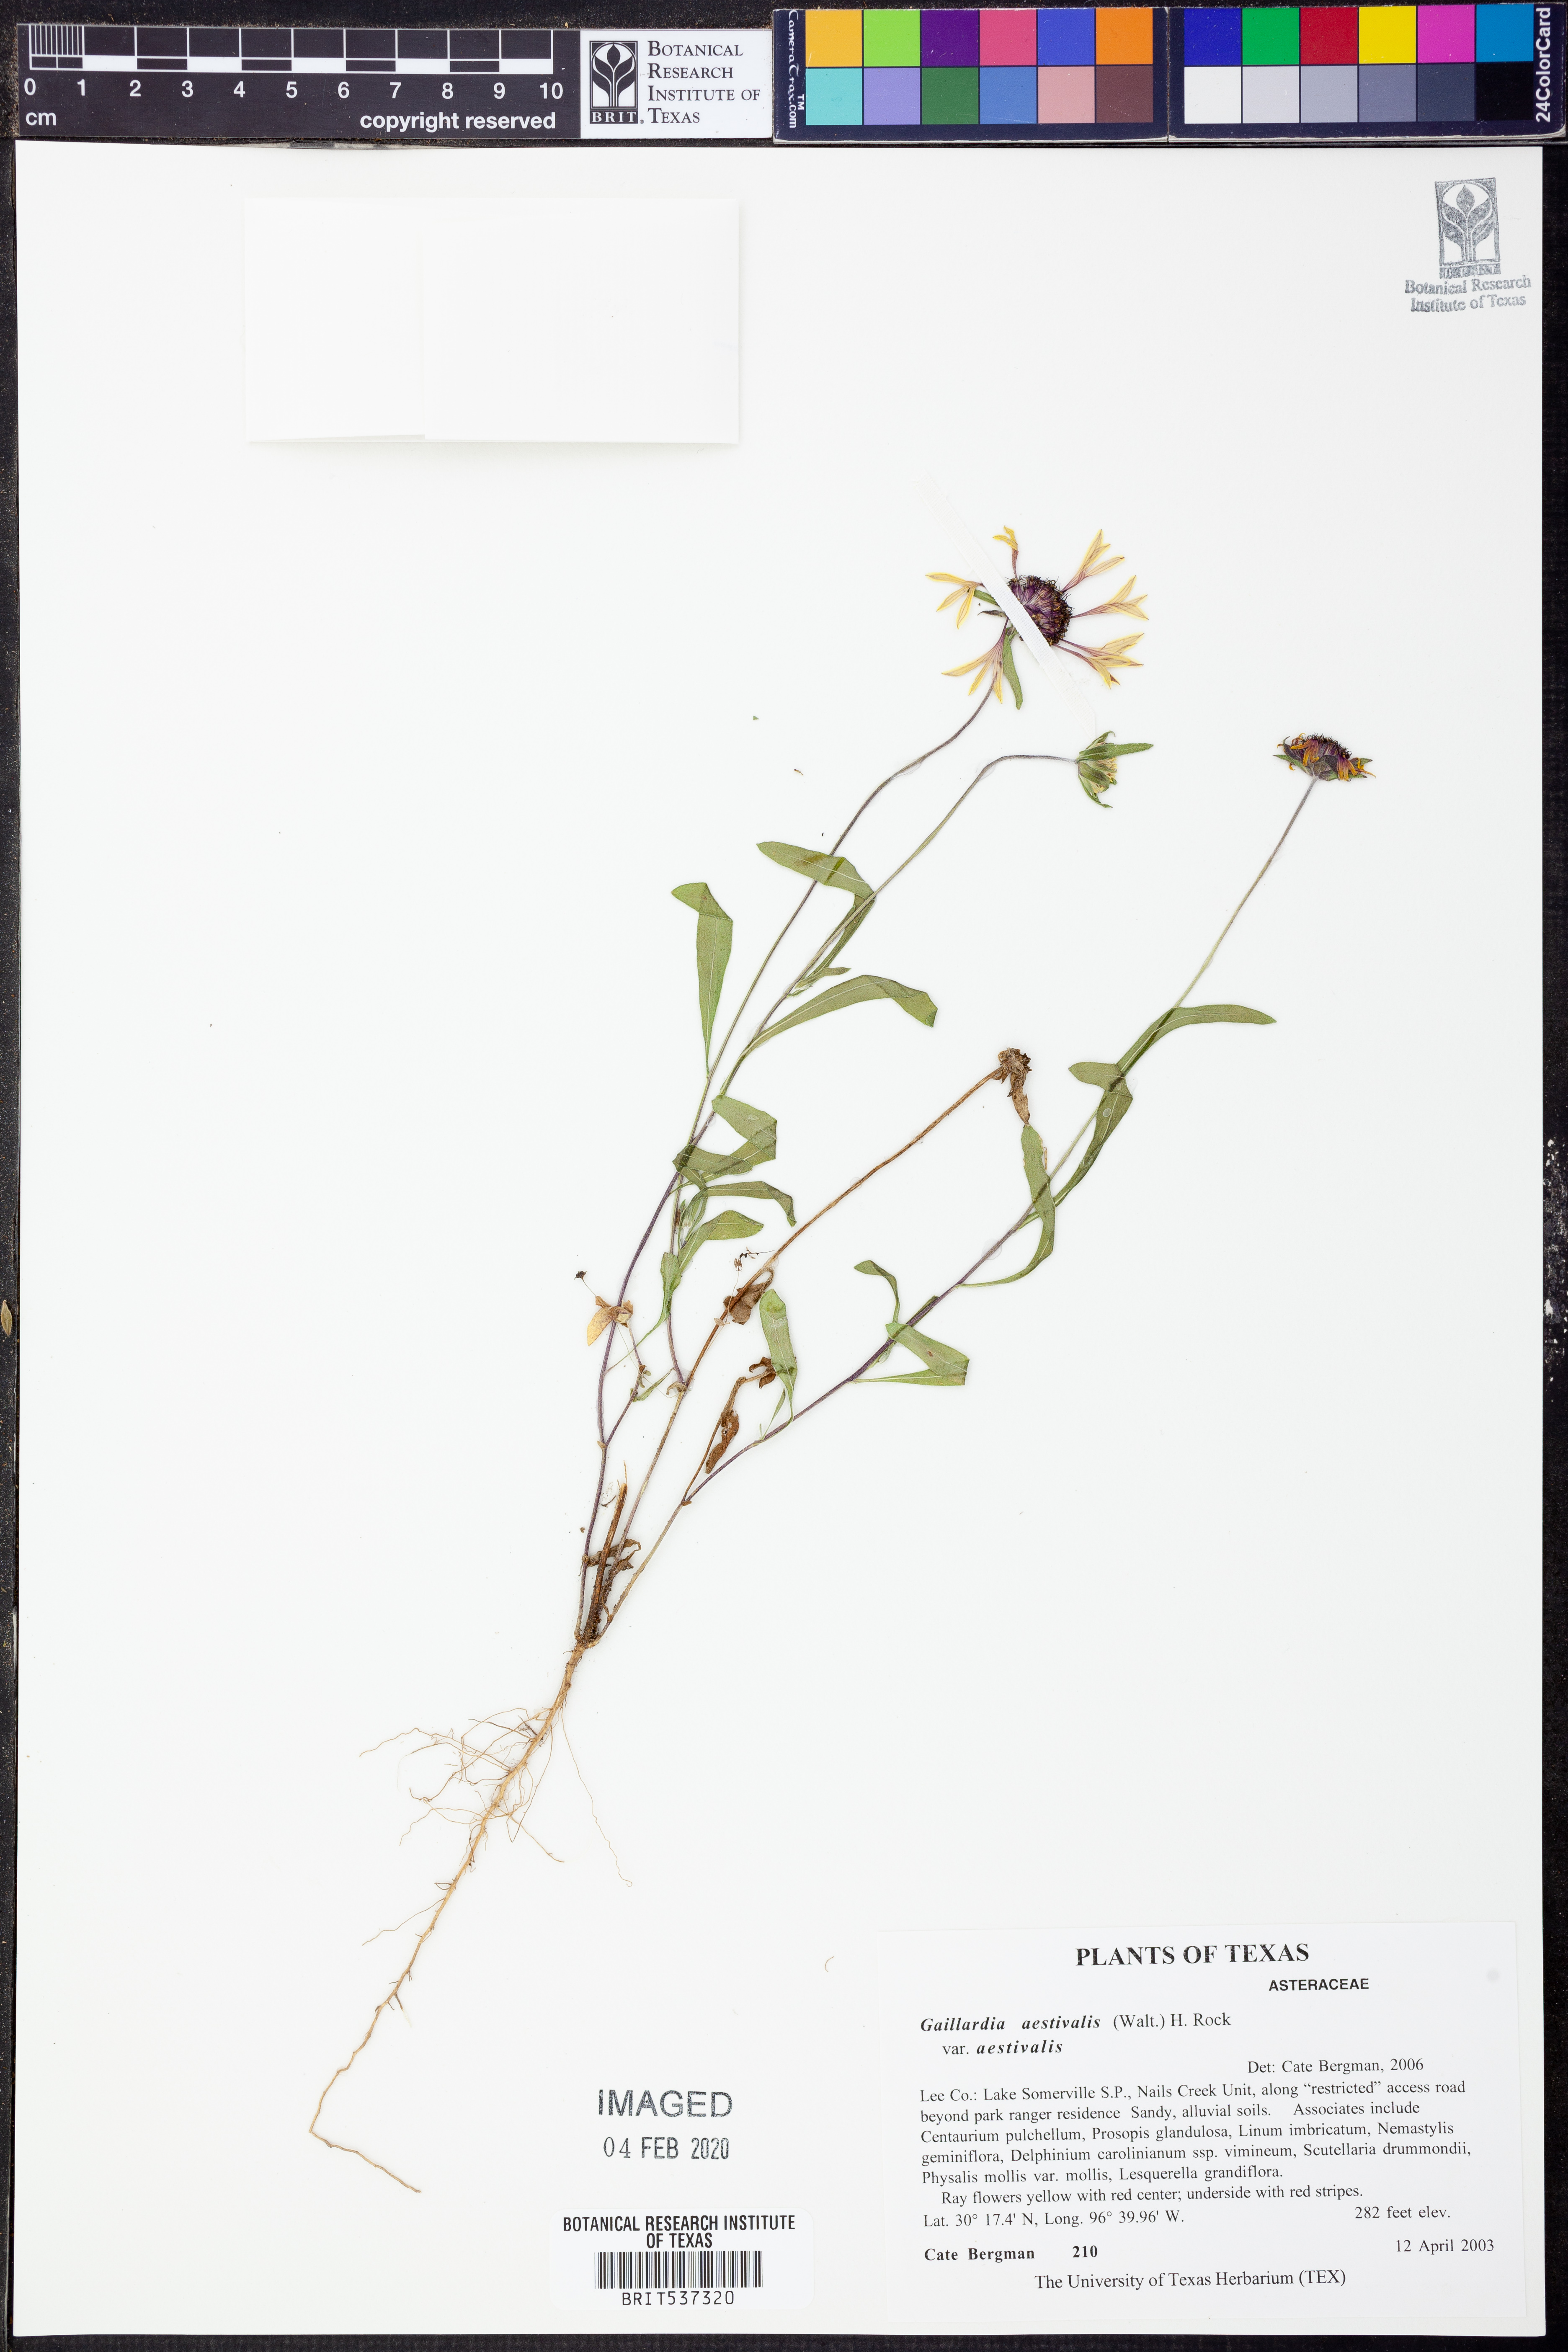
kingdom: Plantae
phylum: Tracheophyta
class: Magnoliopsida
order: Asterales
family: Asteraceae
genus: Gaillardia
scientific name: Gaillardia aestivalis
